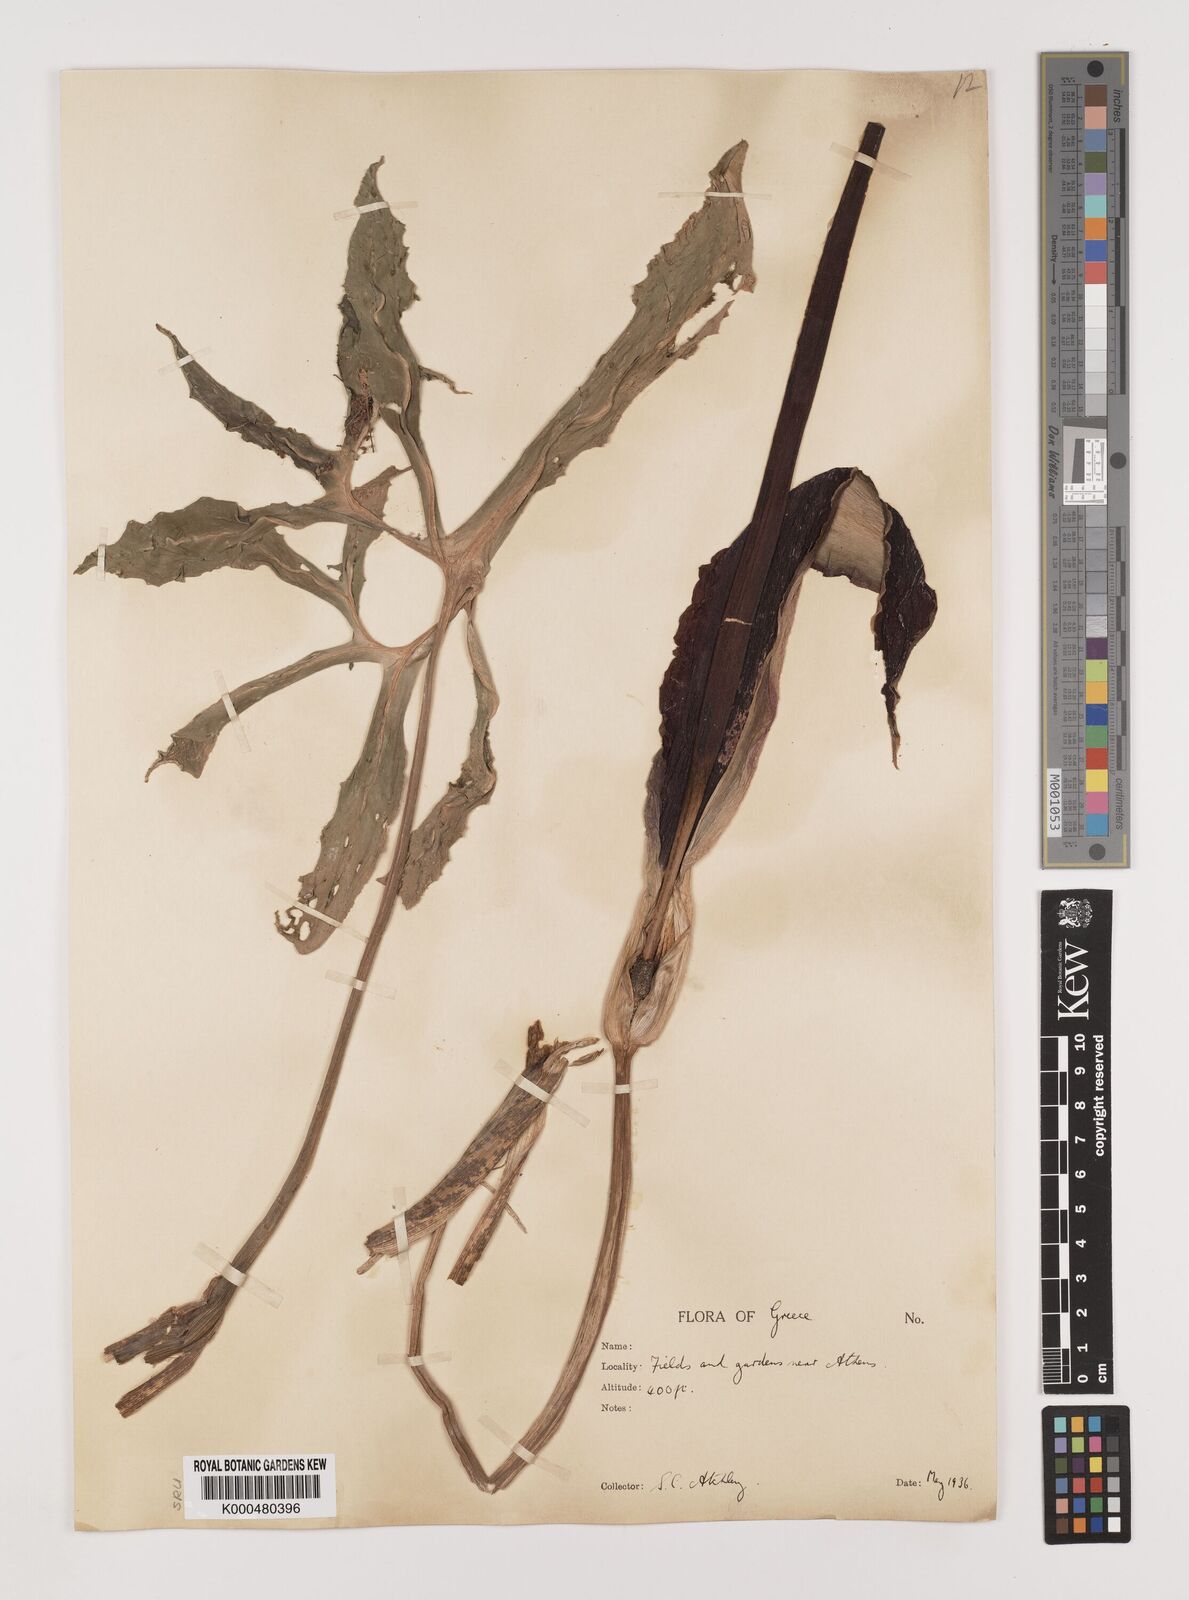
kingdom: Plantae
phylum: Tracheophyta
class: Liliopsida
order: Alismatales
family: Araceae
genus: Dracunculus
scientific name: Dracunculus vulgaris
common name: Dragon arum
